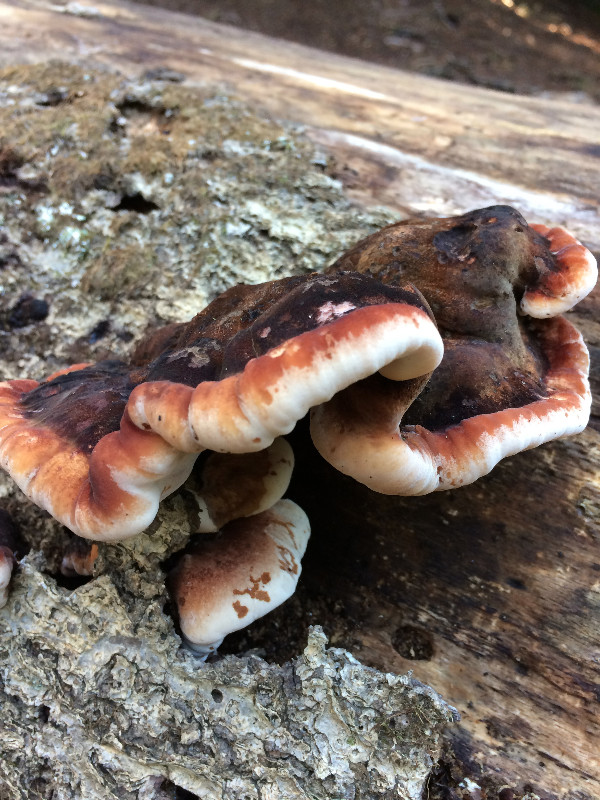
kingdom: Fungi
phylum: Basidiomycota
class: Agaricomycetes
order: Polyporales
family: Ischnodermataceae
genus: Ischnoderma
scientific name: Ischnoderma resinosum
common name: løv-tjæreporesvamp
